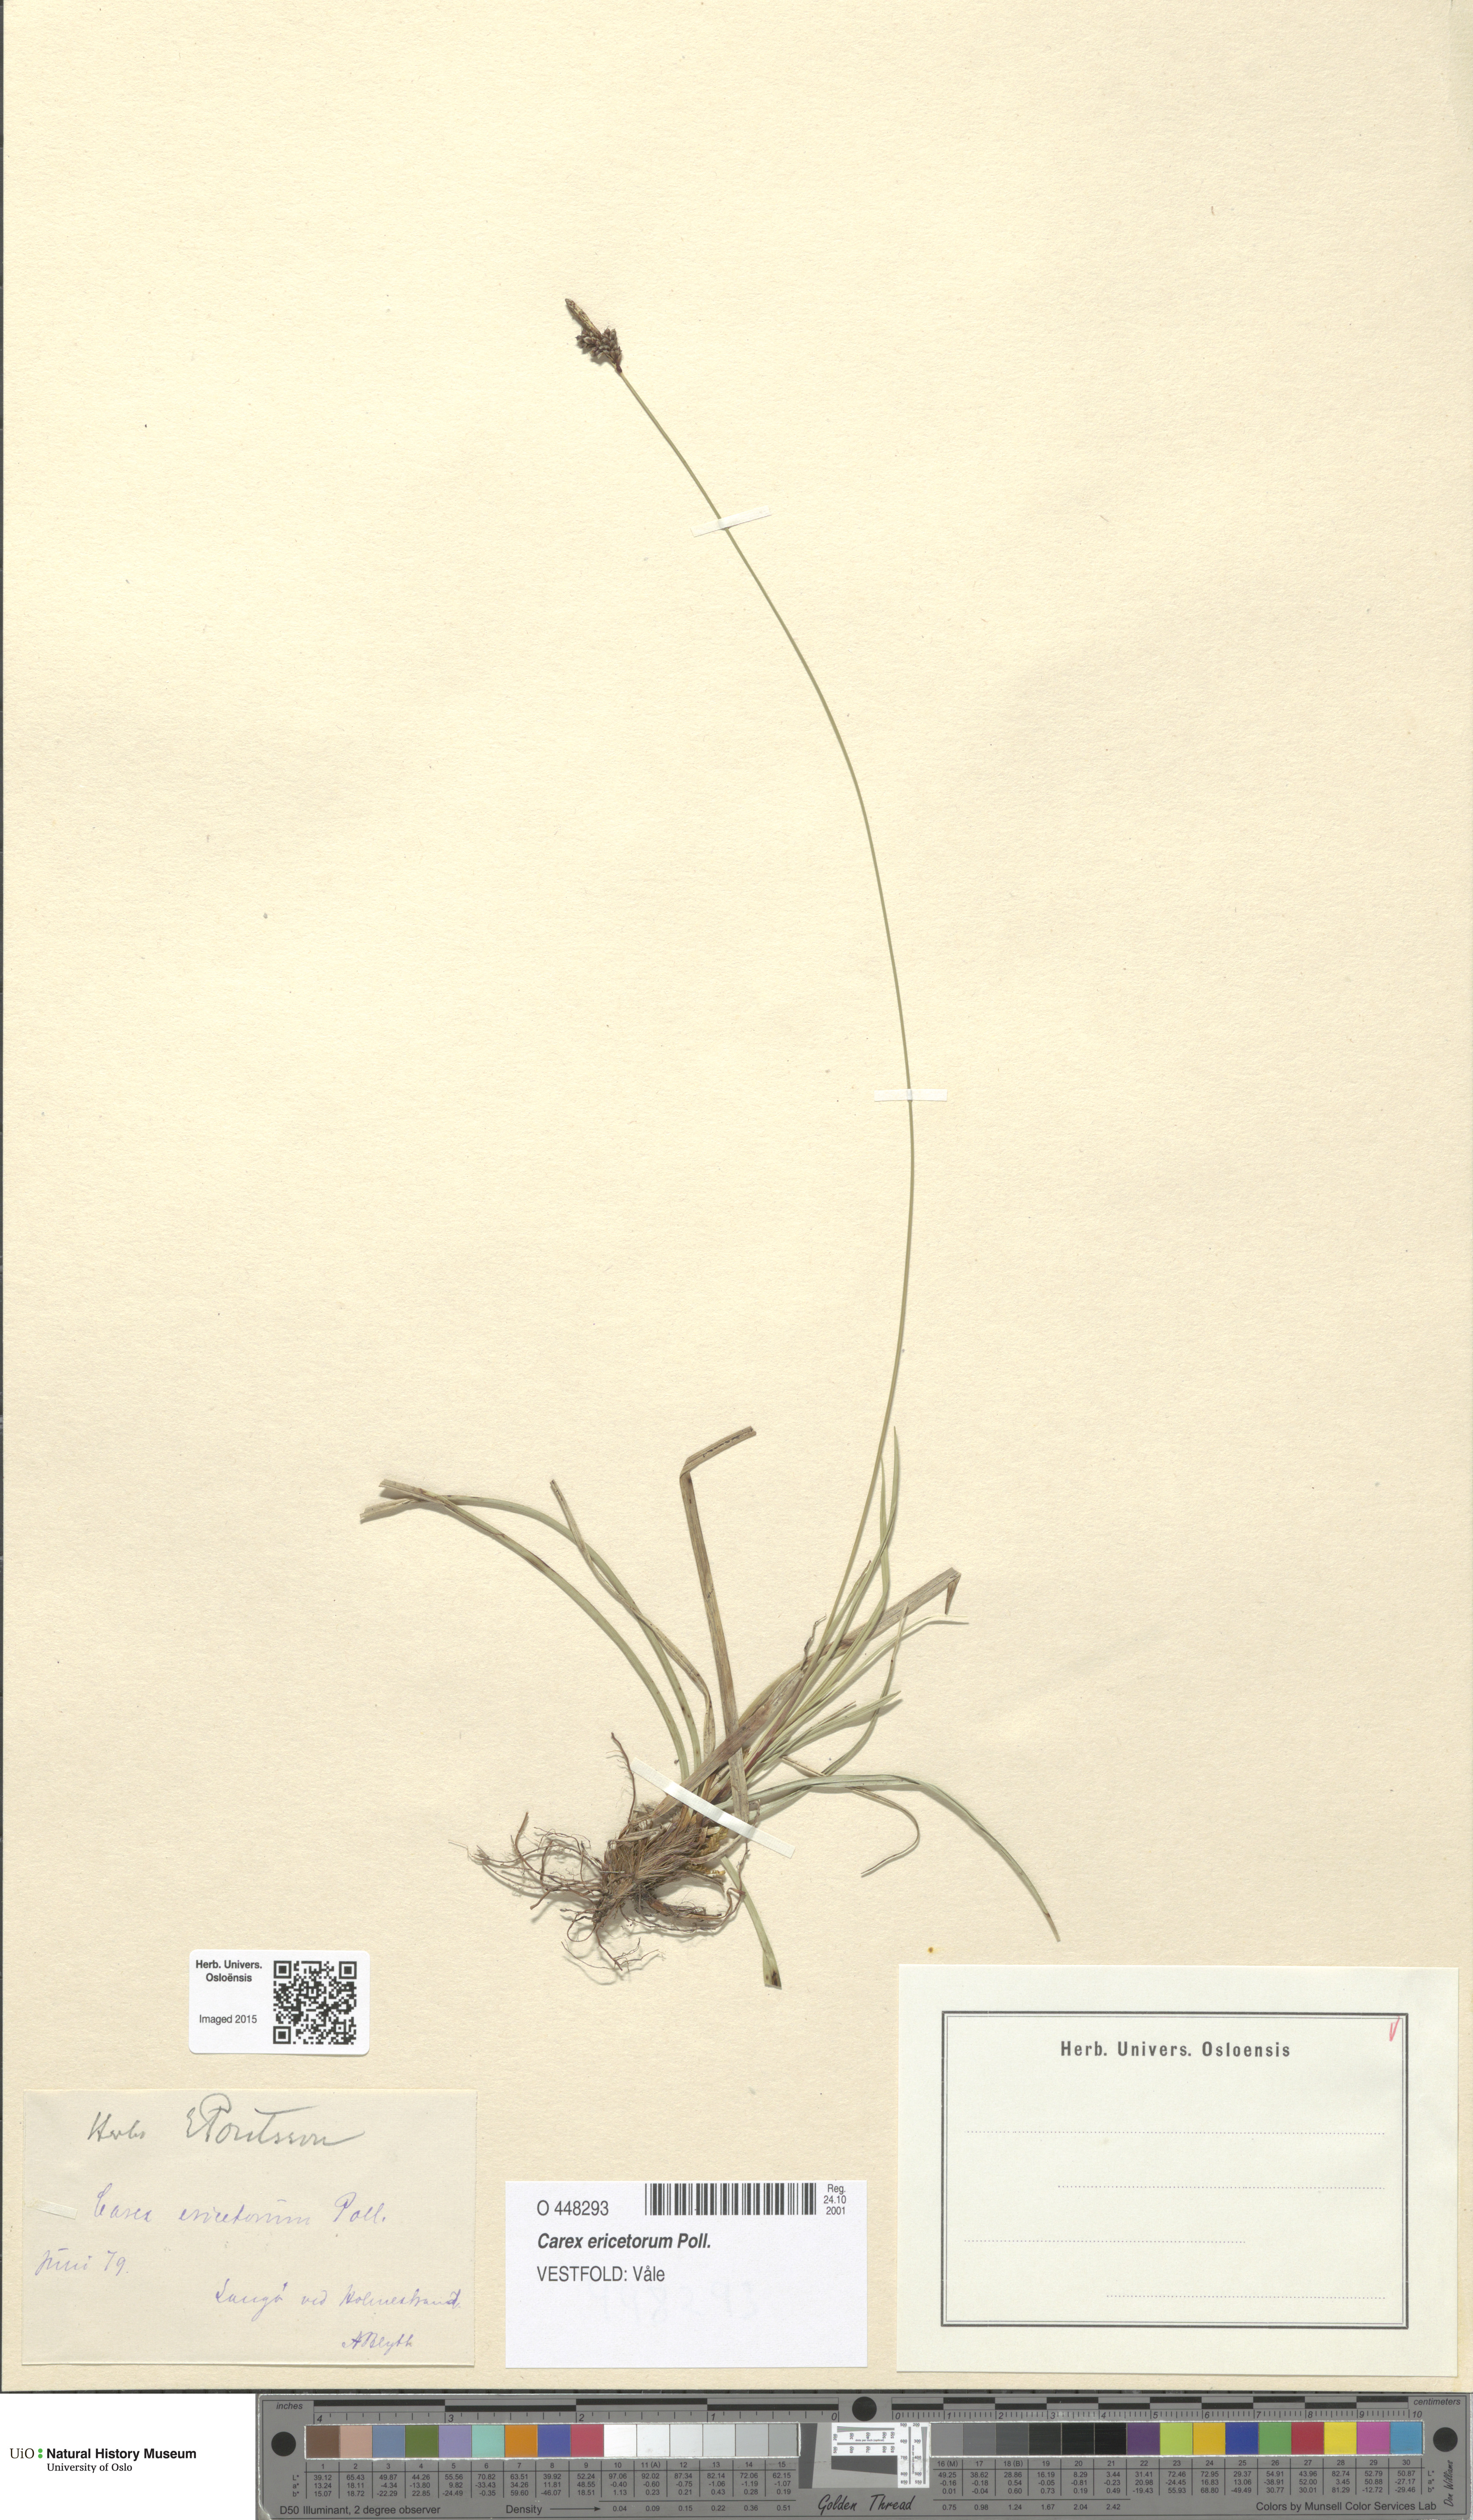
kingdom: Plantae
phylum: Tracheophyta
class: Liliopsida
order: Poales
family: Cyperaceae
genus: Carex
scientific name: Carex ericetorum
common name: Rare spring-sedge
